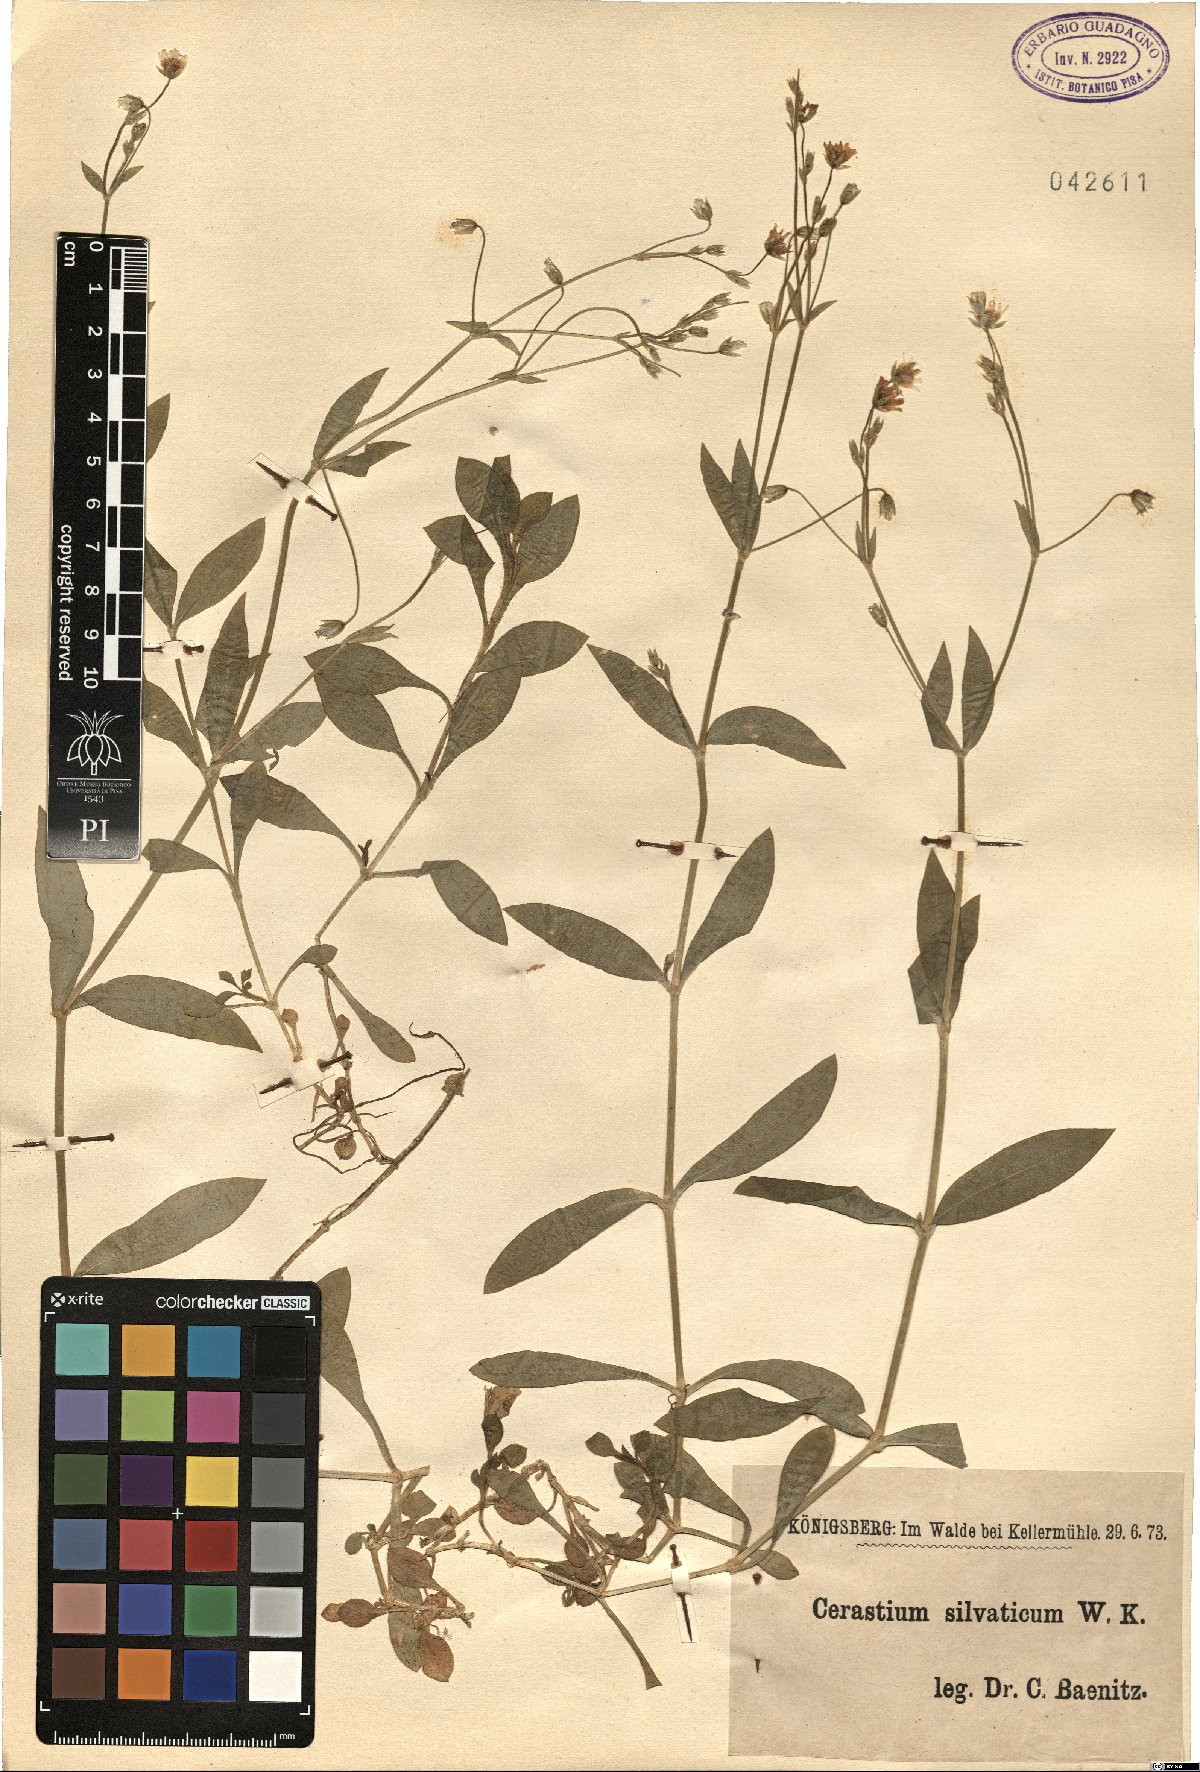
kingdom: Plantae
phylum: Tracheophyta
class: Magnoliopsida
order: Caryophyllales
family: Caryophyllaceae
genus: Cerastium
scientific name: Cerastium sylvaticum
